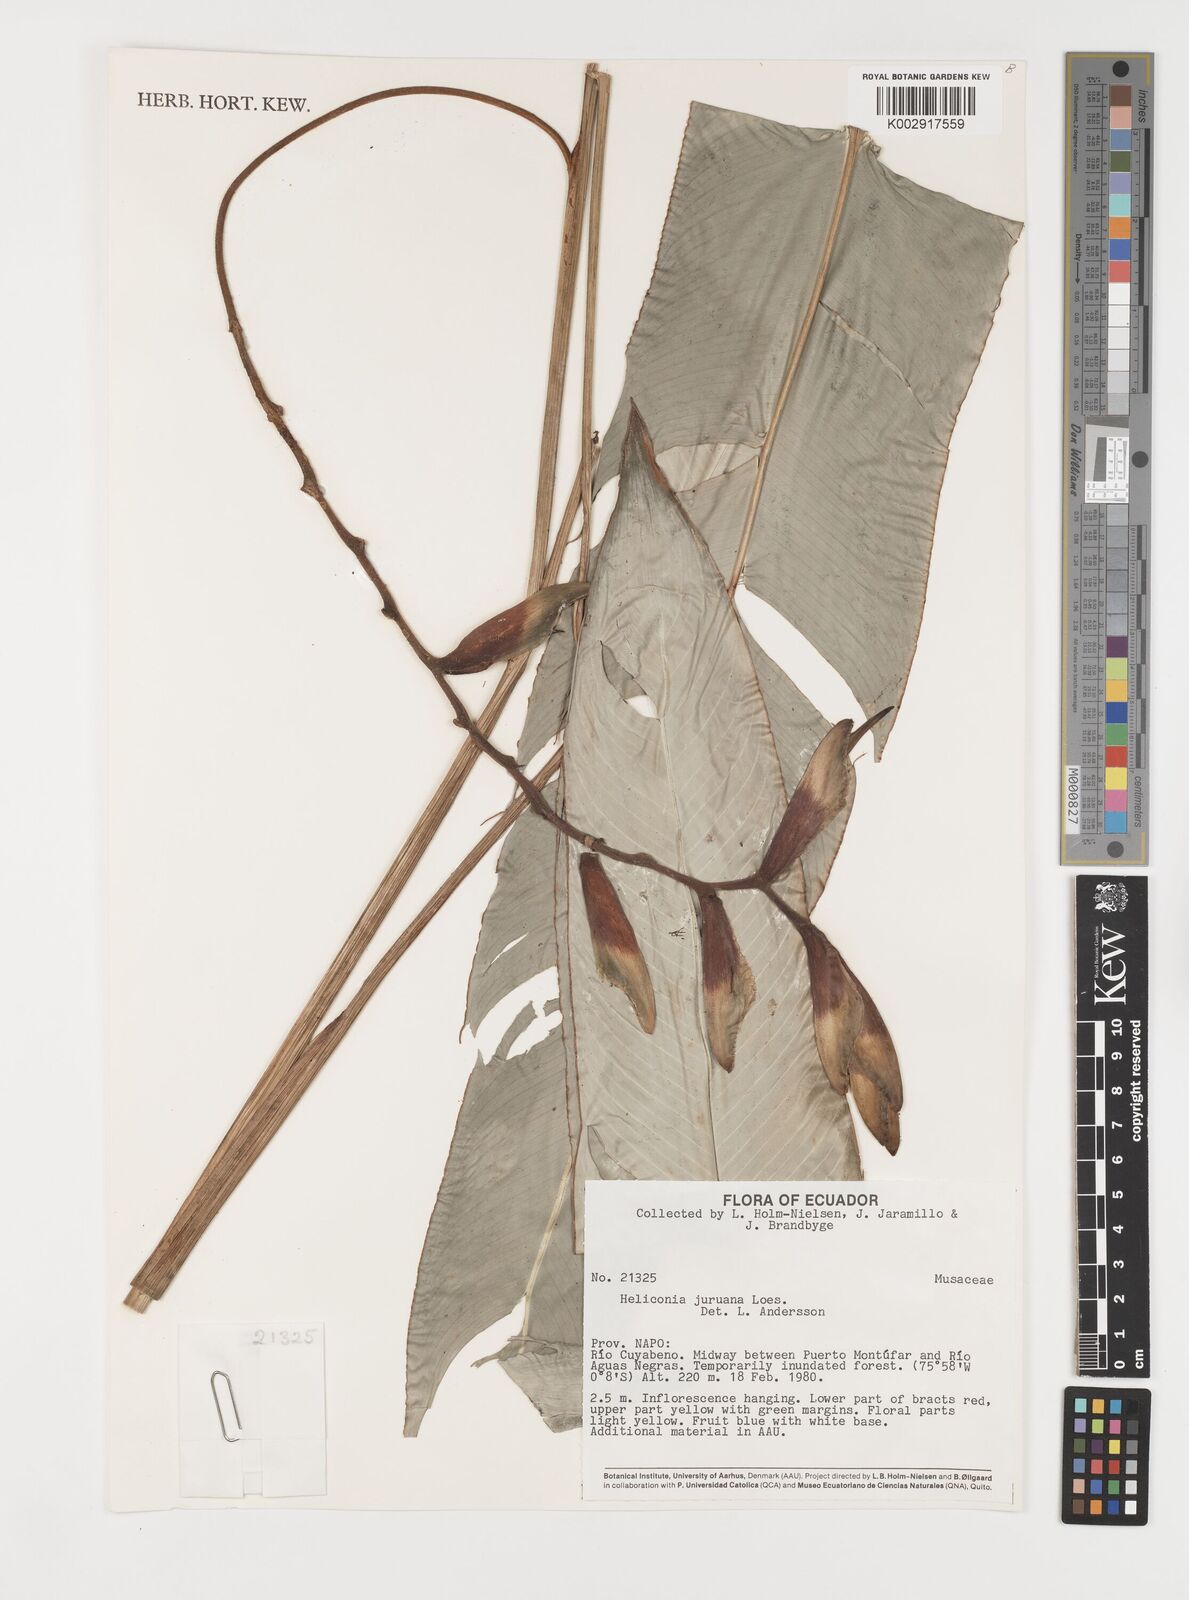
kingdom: Plantae
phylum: Tracheophyta
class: Liliopsida
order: Zingiberales
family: Heliconiaceae
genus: Heliconia
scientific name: Heliconia juruana
